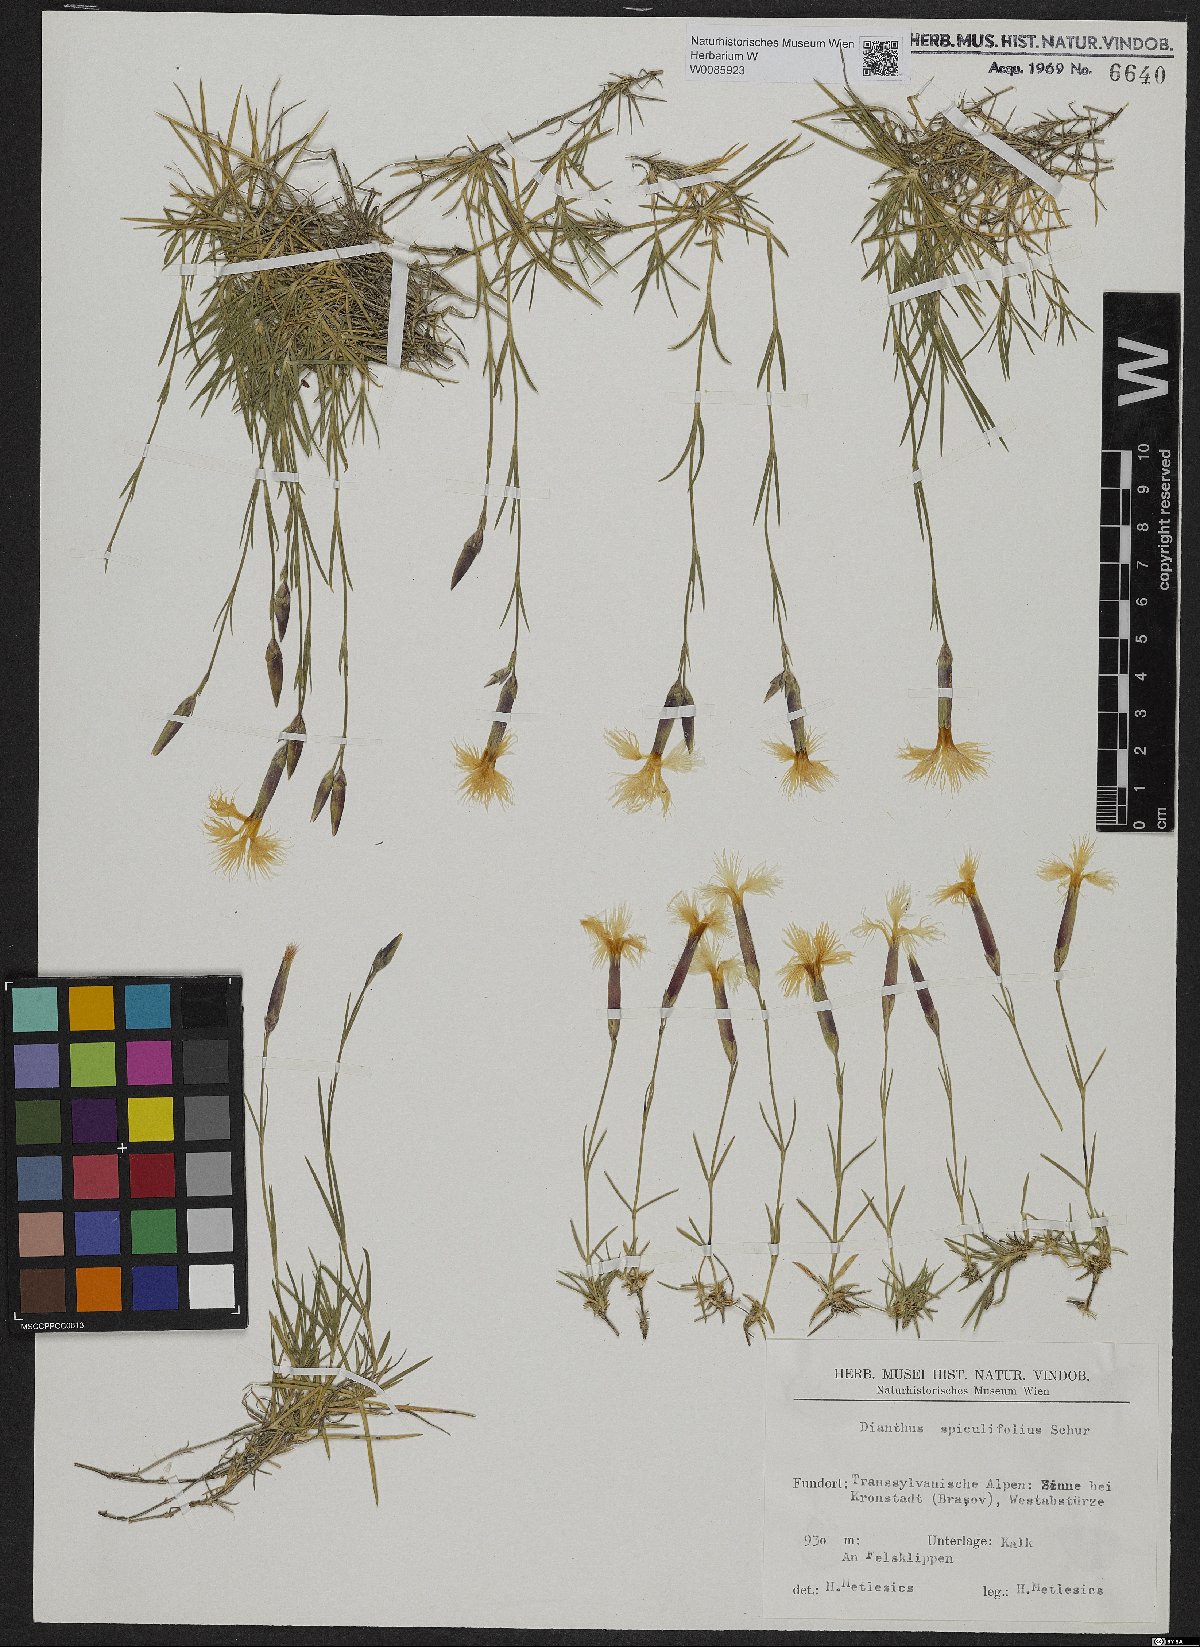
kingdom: Plantae
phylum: Tracheophyta
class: Magnoliopsida
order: Caryophyllales
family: Caryophyllaceae
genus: Dianthus
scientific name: Dianthus spiculifolius
